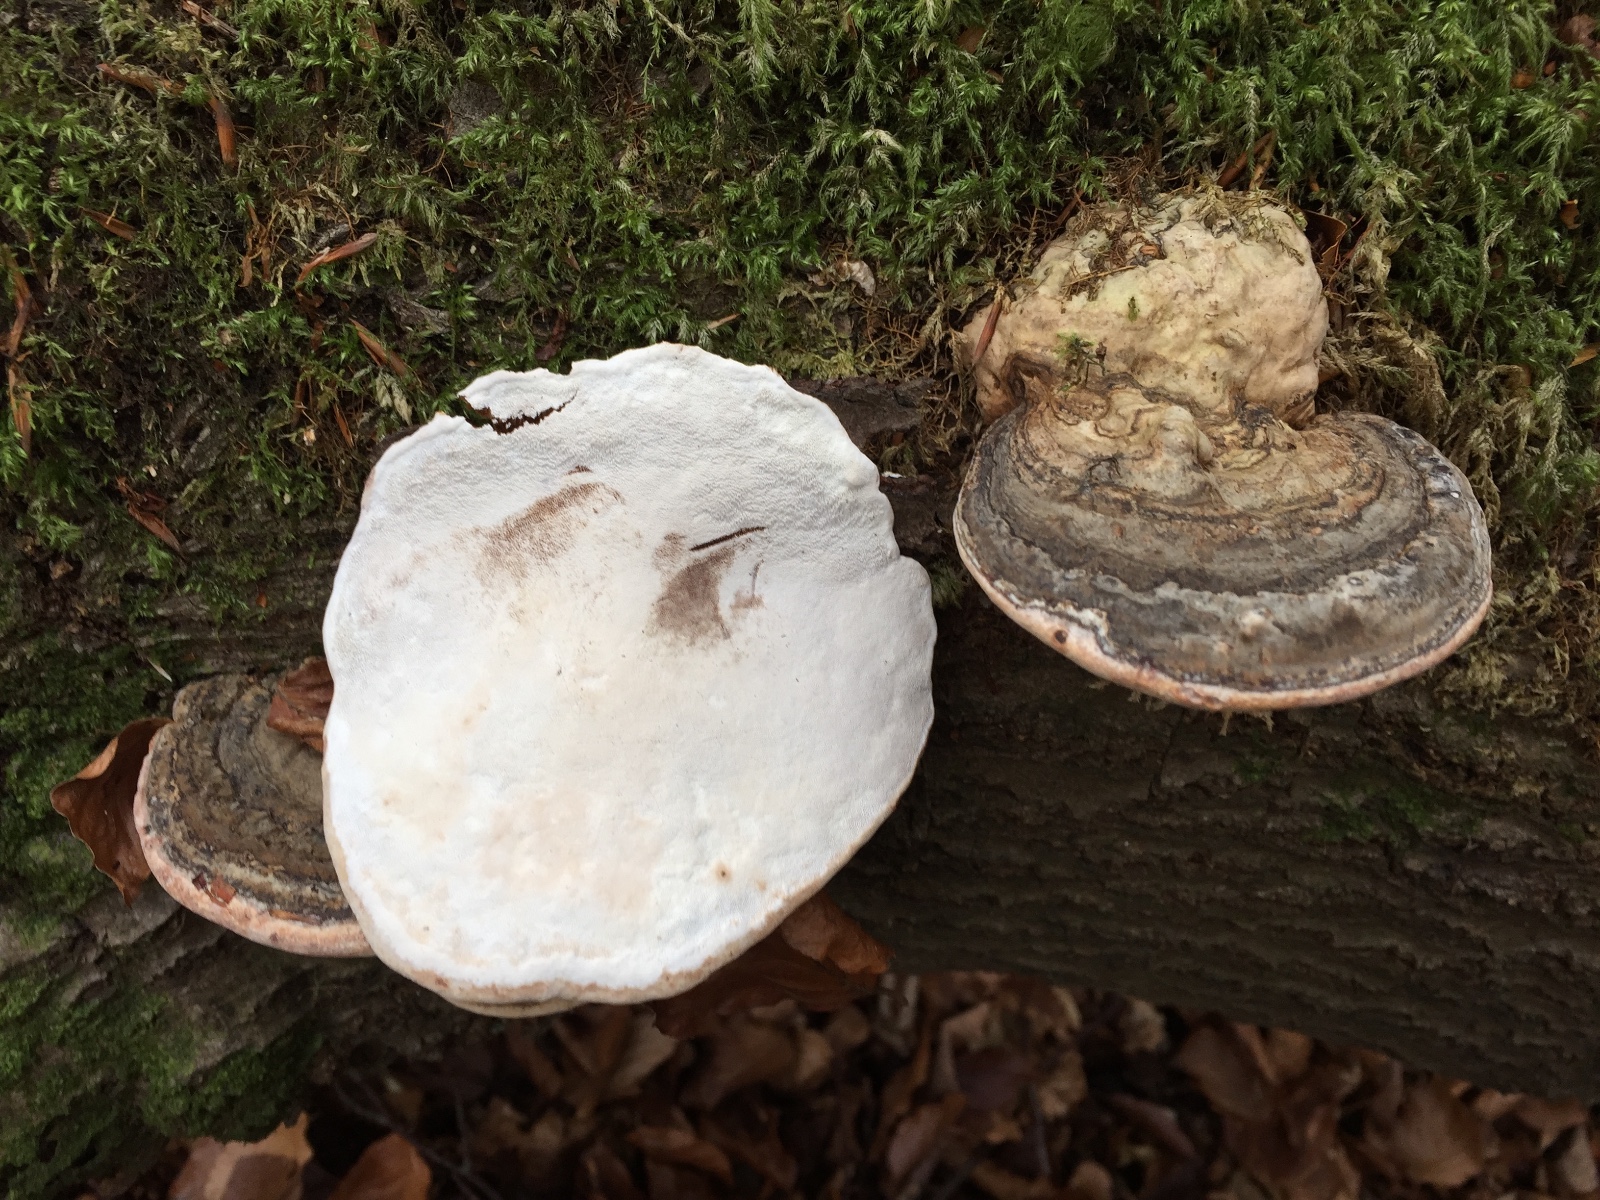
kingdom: Fungi
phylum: Basidiomycota
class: Agaricomycetes
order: Polyporales
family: Polyporaceae
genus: Ganoderma
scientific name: Ganoderma applanatum
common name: flad lakporesvamp
